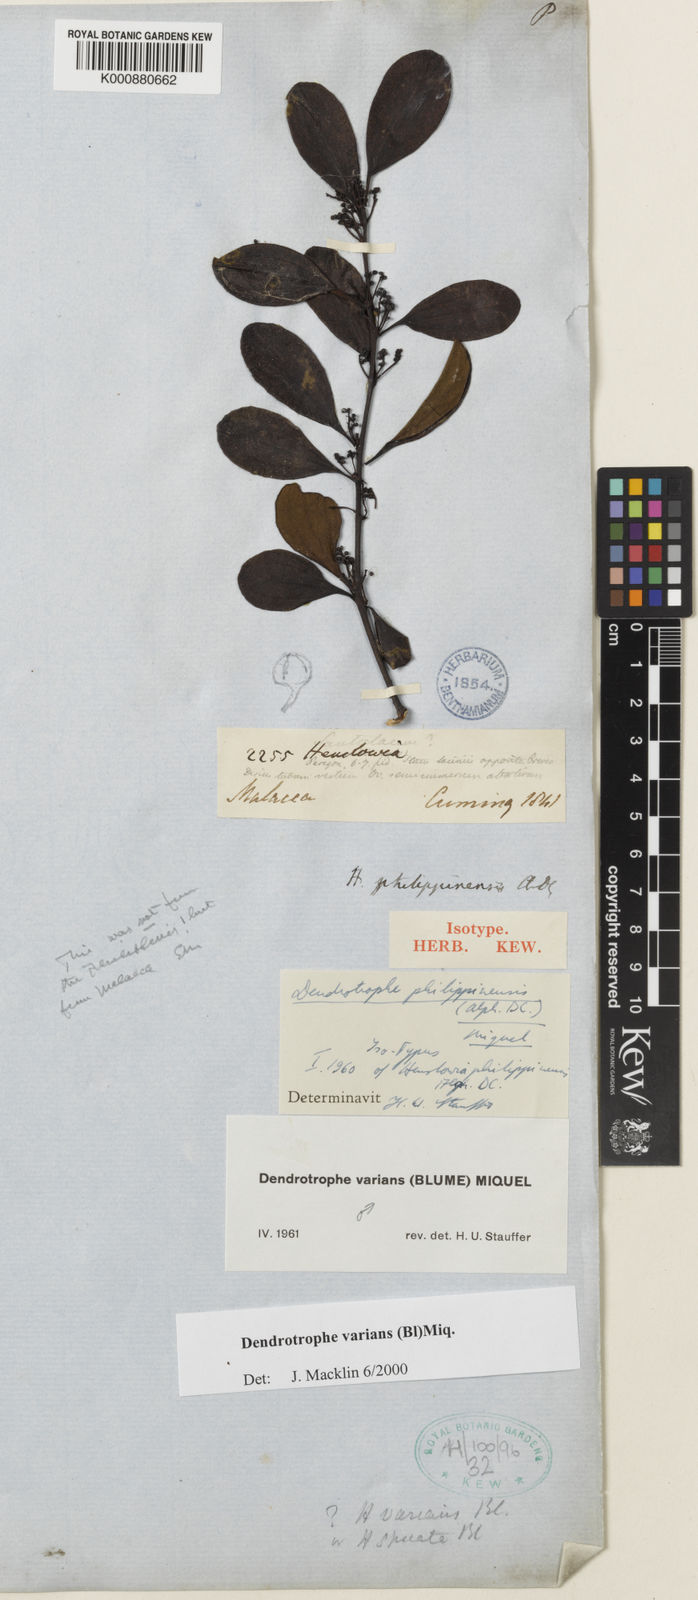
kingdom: Plantae
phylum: Tracheophyta
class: Magnoliopsida
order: Santalales
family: Amphorogynaceae
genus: Dendrotrophe
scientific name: Dendrotrophe varians
